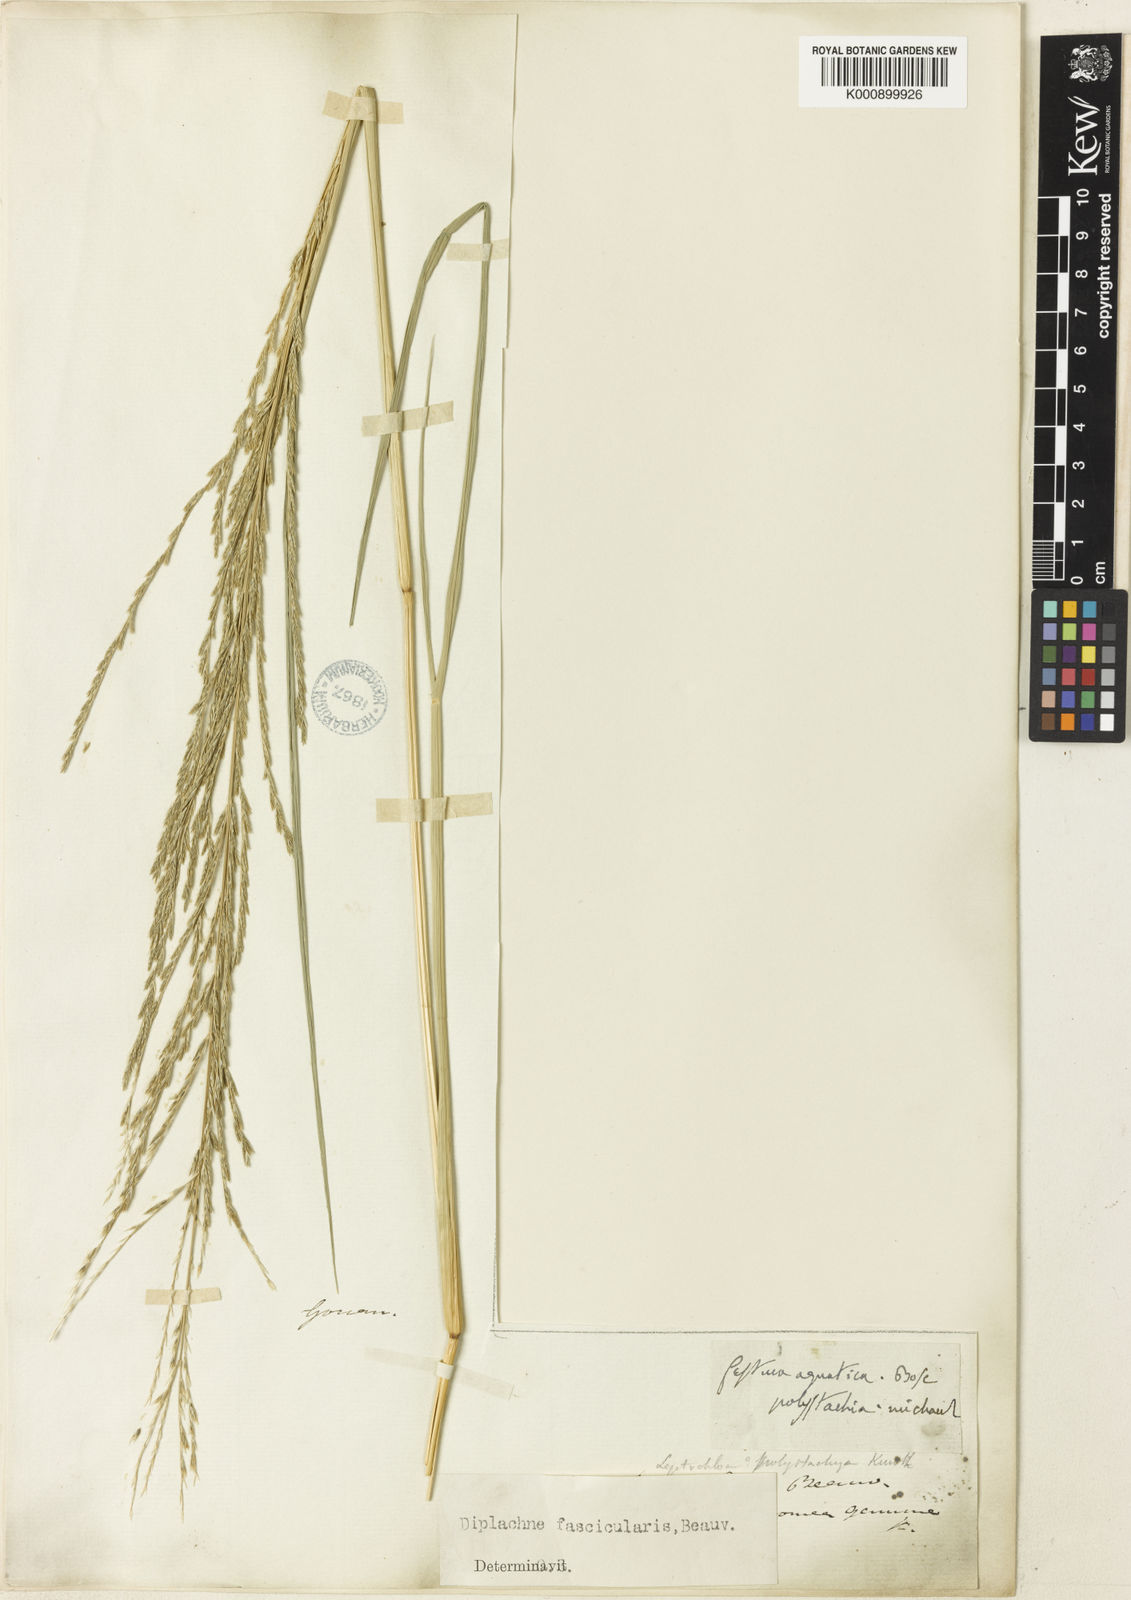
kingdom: Plantae
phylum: Tracheophyta
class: Liliopsida
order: Poales
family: Poaceae
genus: Diplachne
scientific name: Diplachne fusca
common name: Brown beetle grass
